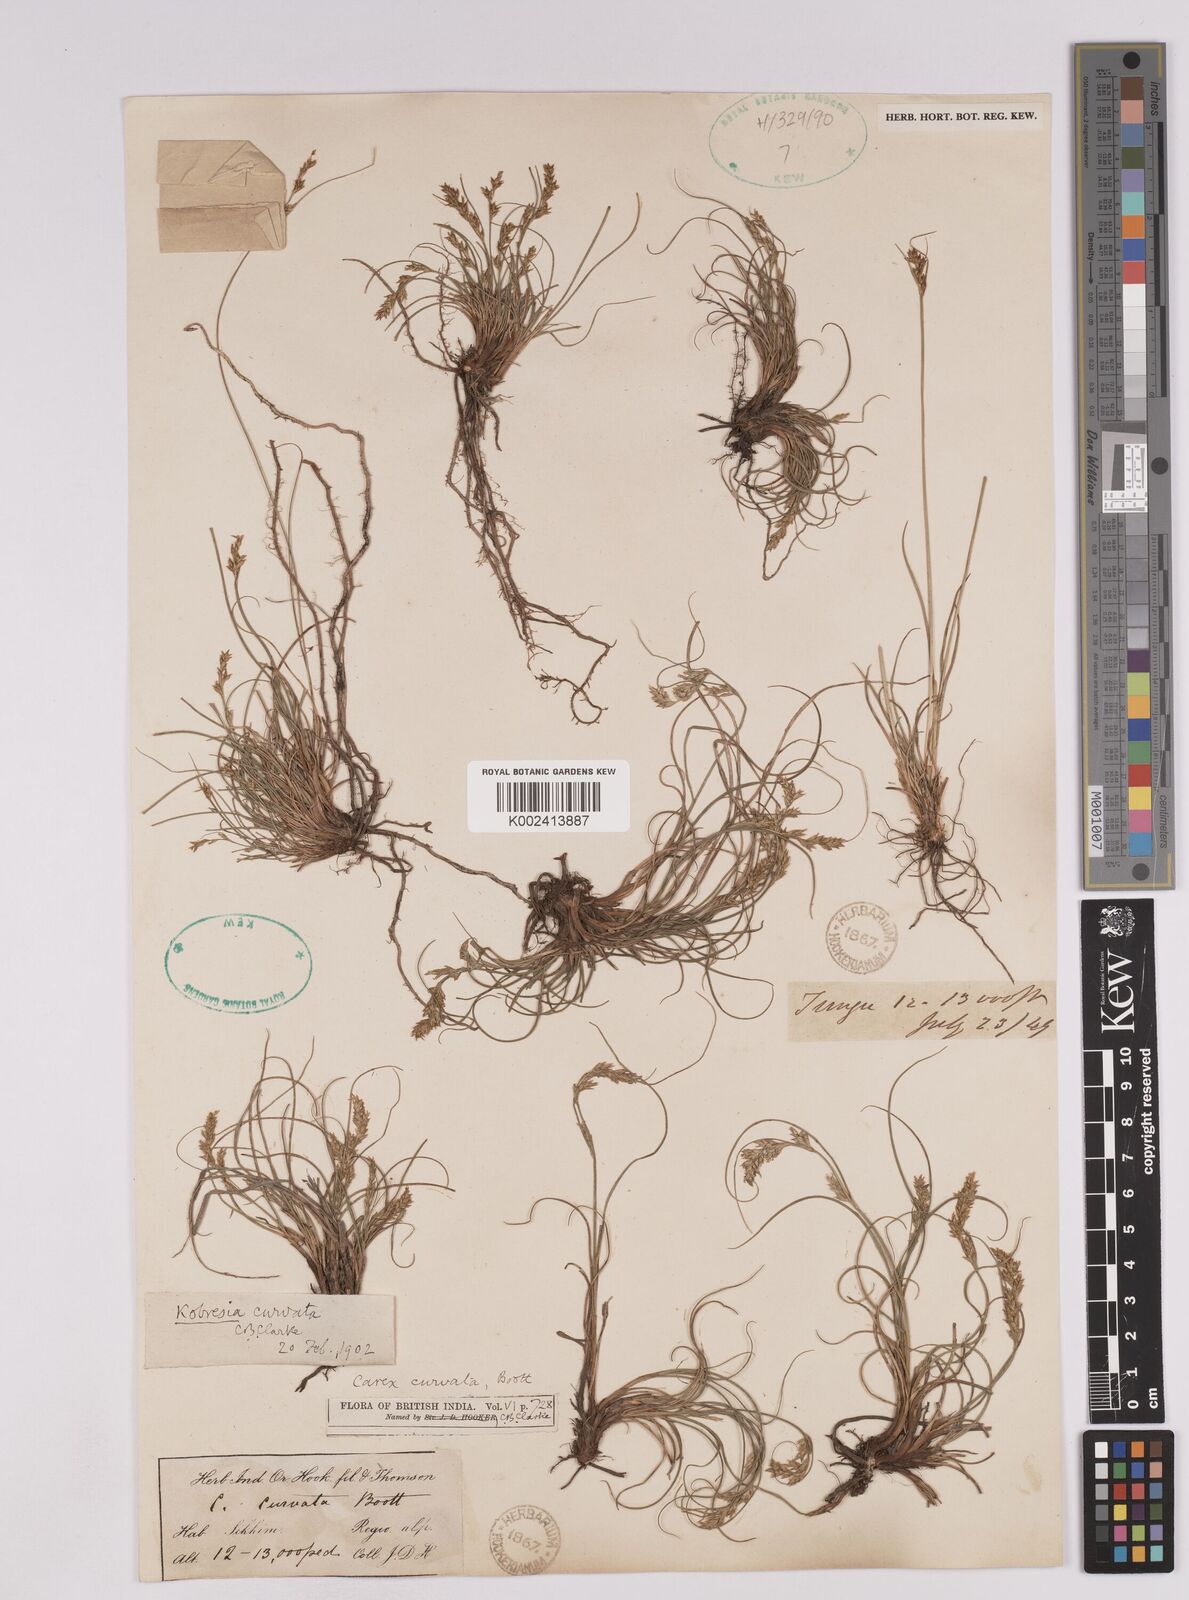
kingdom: Plantae
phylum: Tracheophyta
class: Liliopsida
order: Poales
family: Cyperaceae
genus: Carex
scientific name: Carex bonatiana
